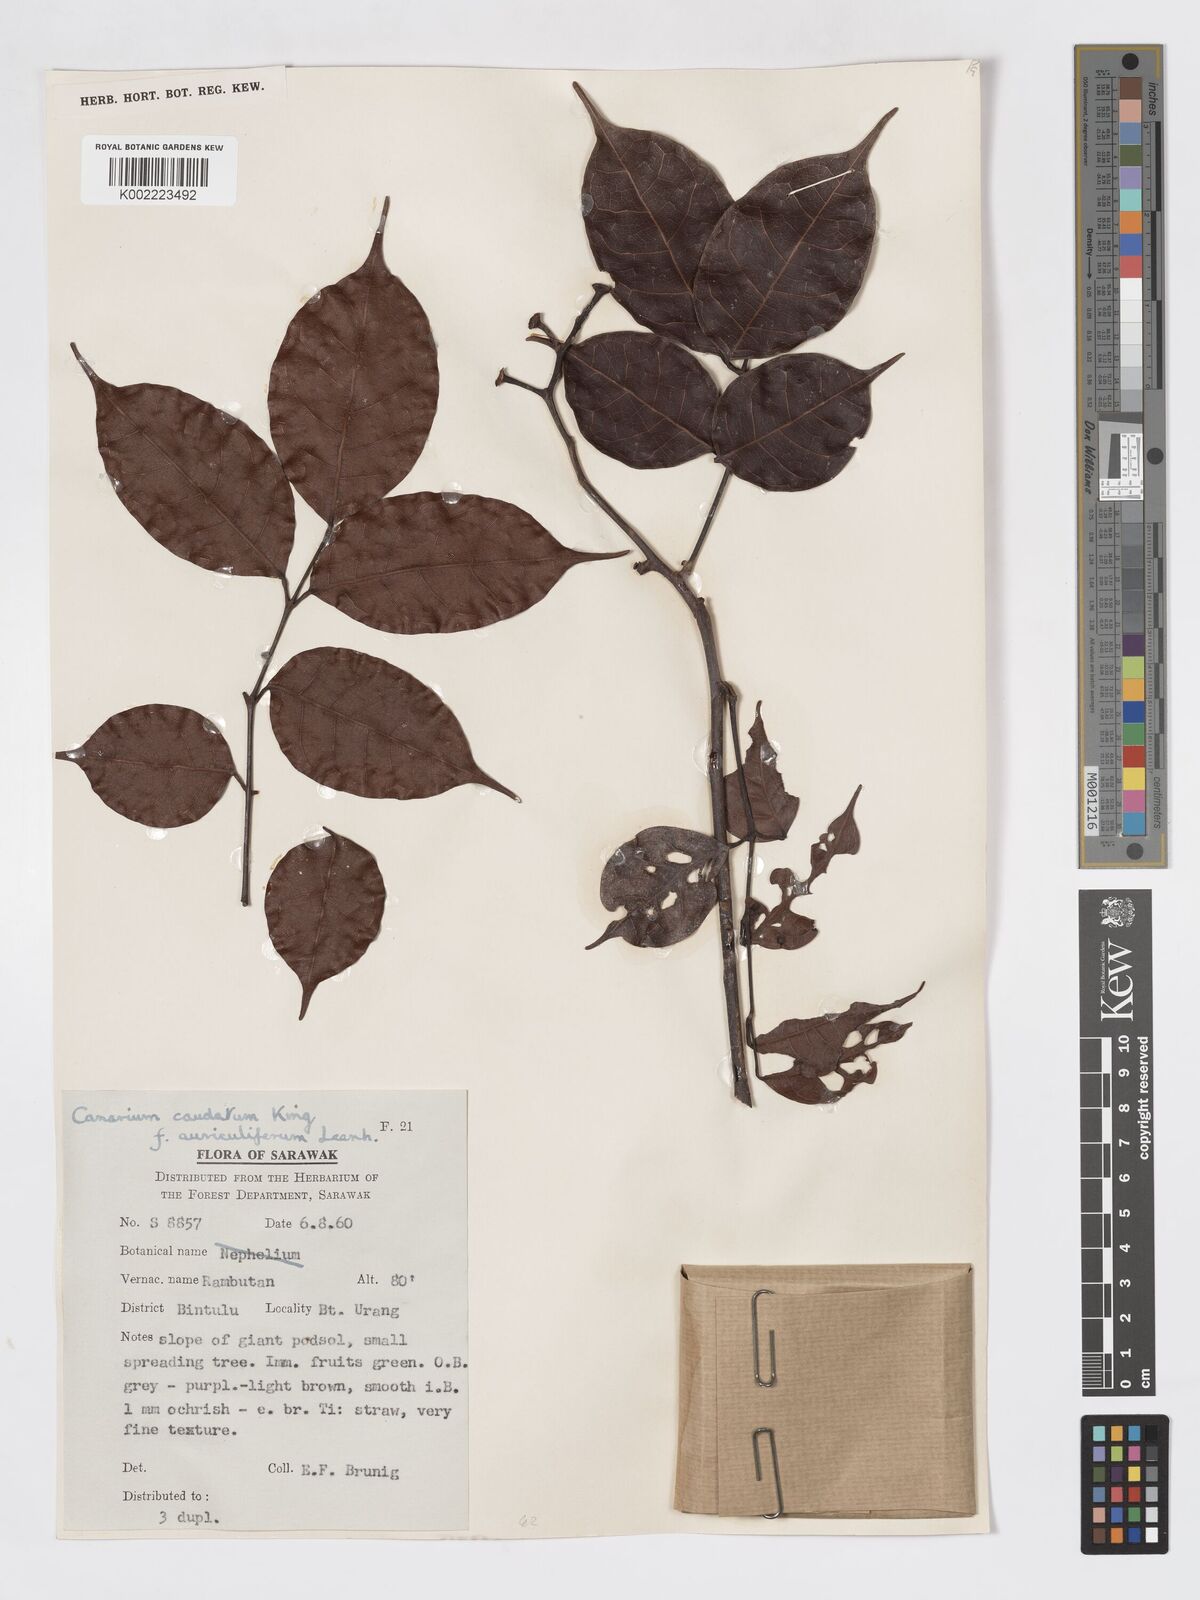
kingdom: Plantae
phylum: Tracheophyta
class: Magnoliopsida
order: Sapindales
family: Burseraceae
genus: Canarium
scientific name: Canarium caudatum
